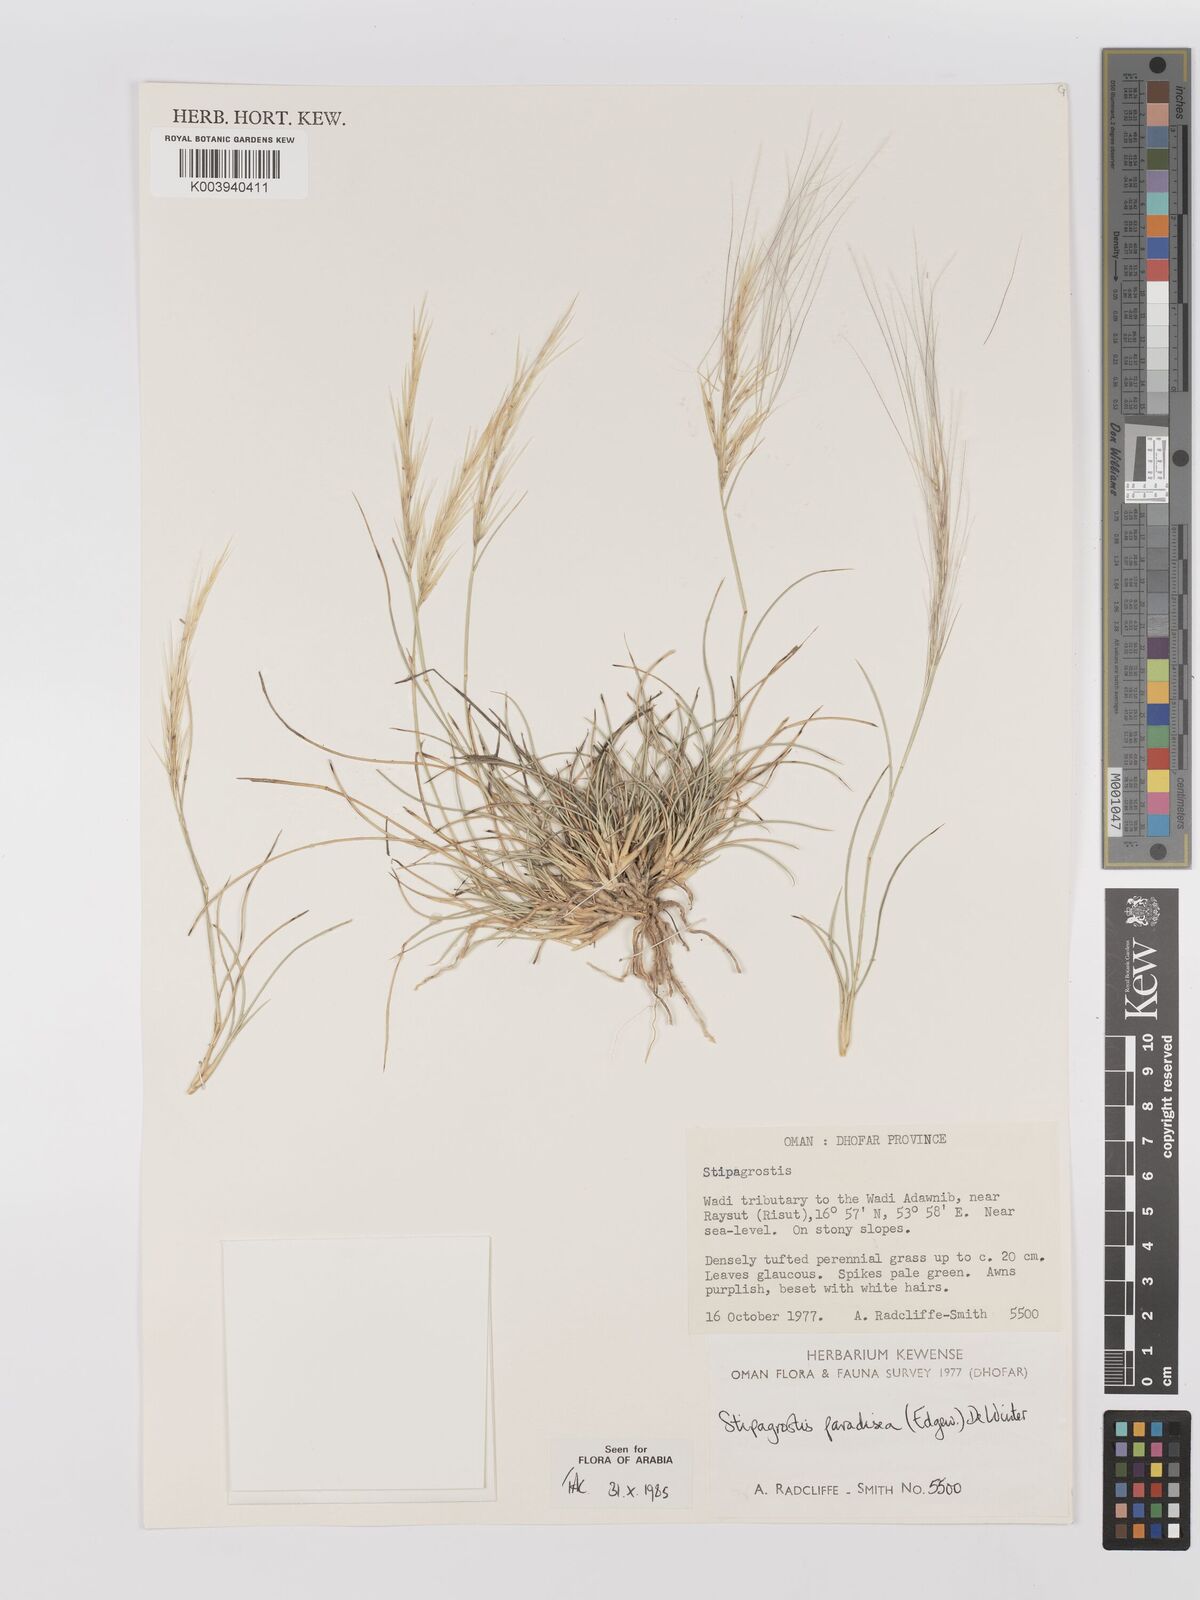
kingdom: Plantae
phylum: Tracheophyta
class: Liliopsida
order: Poales
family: Poaceae
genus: Stipagrostis
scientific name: Stipagrostis paradisea
